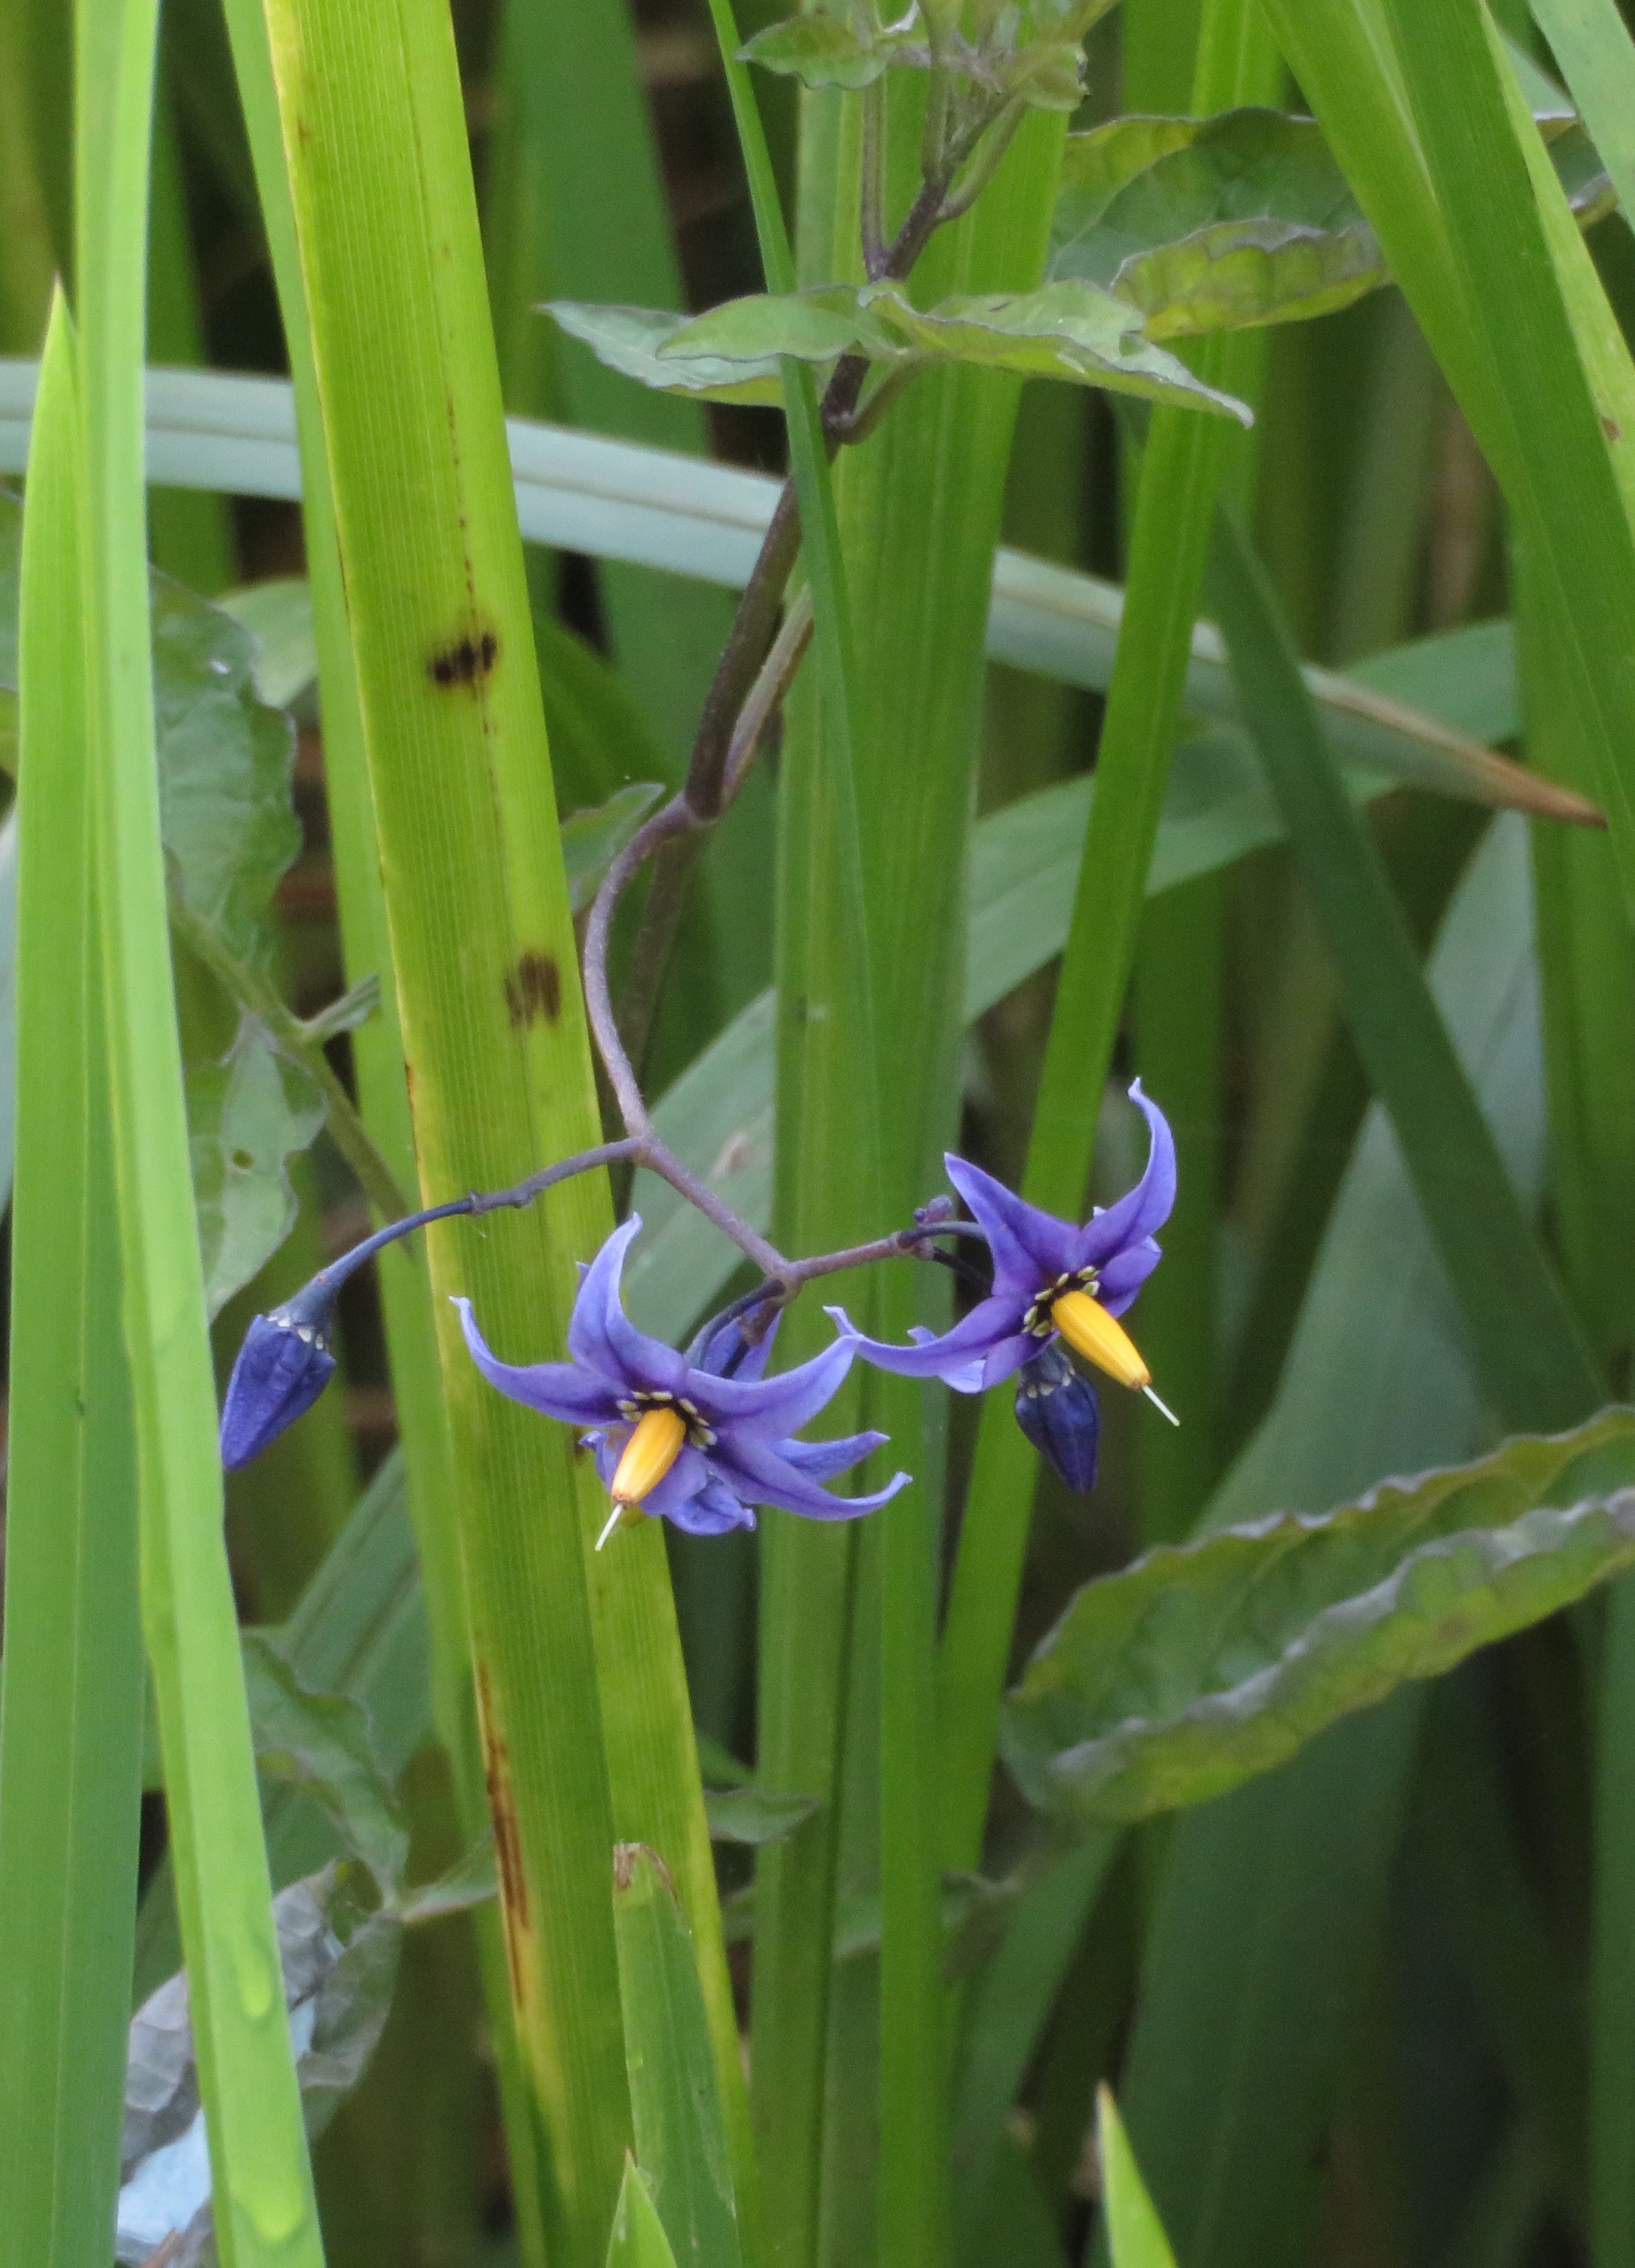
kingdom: Plantae
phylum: Tracheophyta
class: Magnoliopsida
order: Solanales
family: Solanaceae
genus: Solanum
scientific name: Solanum dulcamara
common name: Bittersød natskygge
